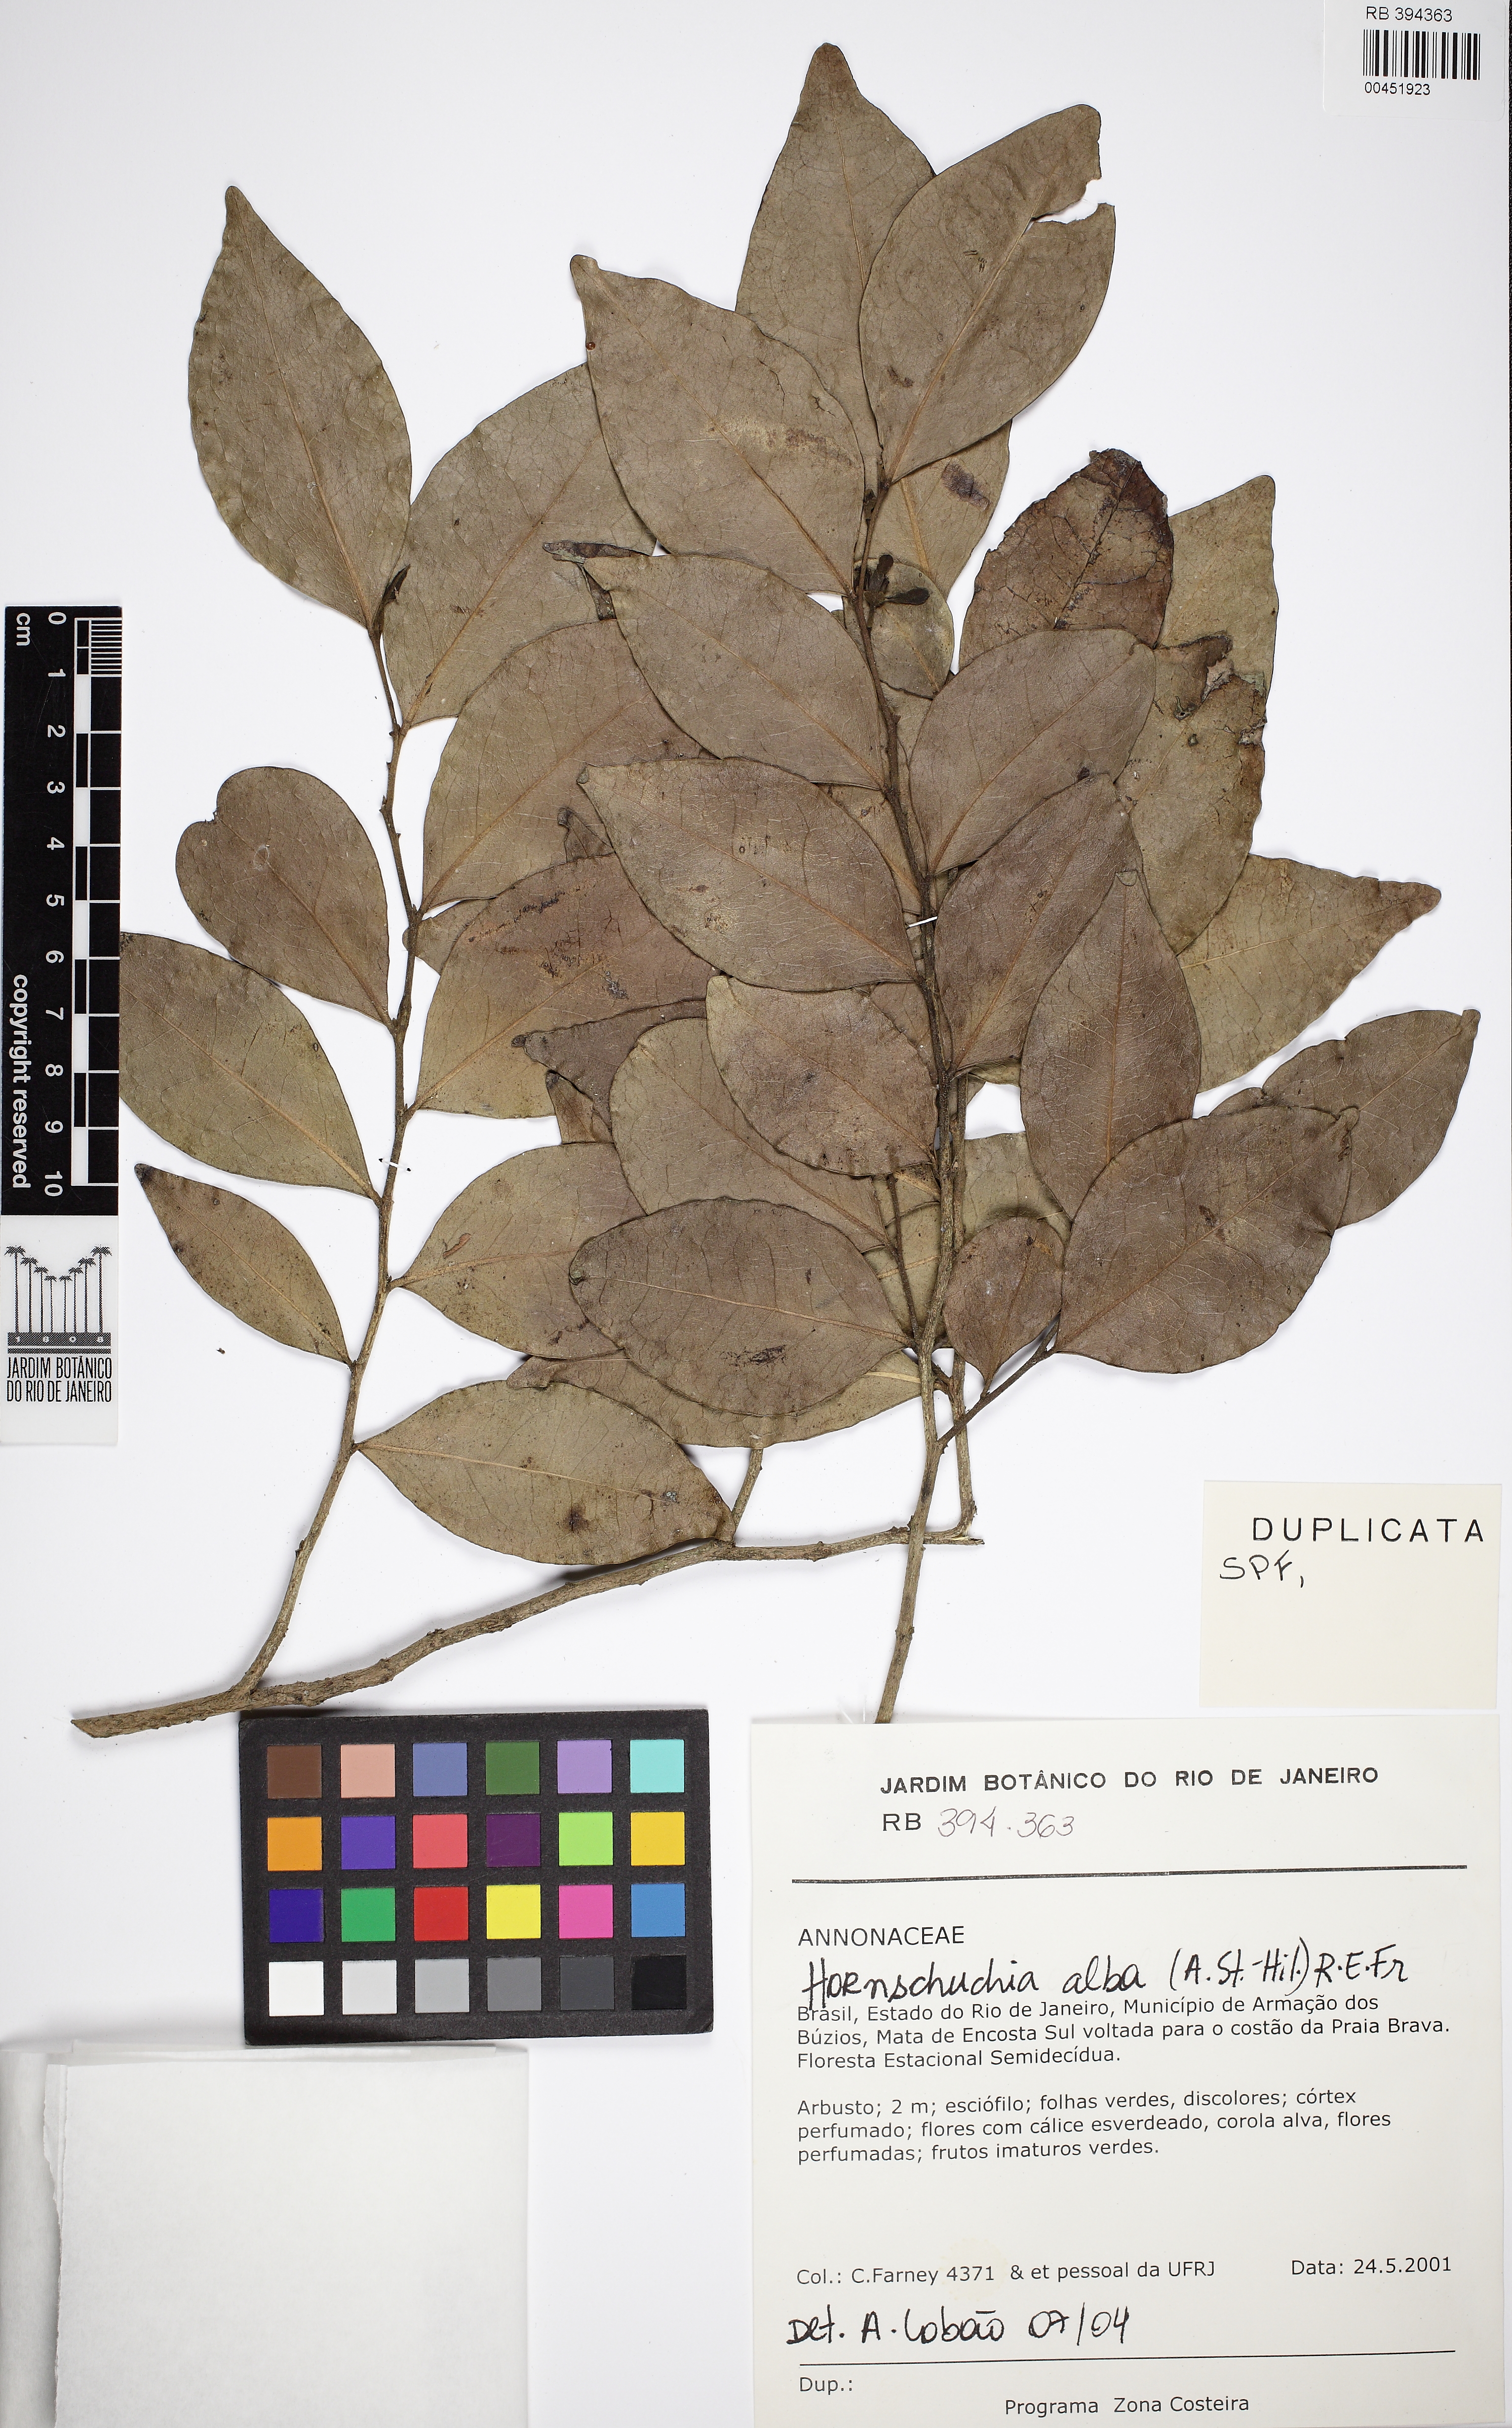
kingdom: Plantae
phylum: Tracheophyta
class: Magnoliopsida
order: Magnoliales
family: Annonaceae
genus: Hornschuchia
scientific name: Hornschuchia alba
